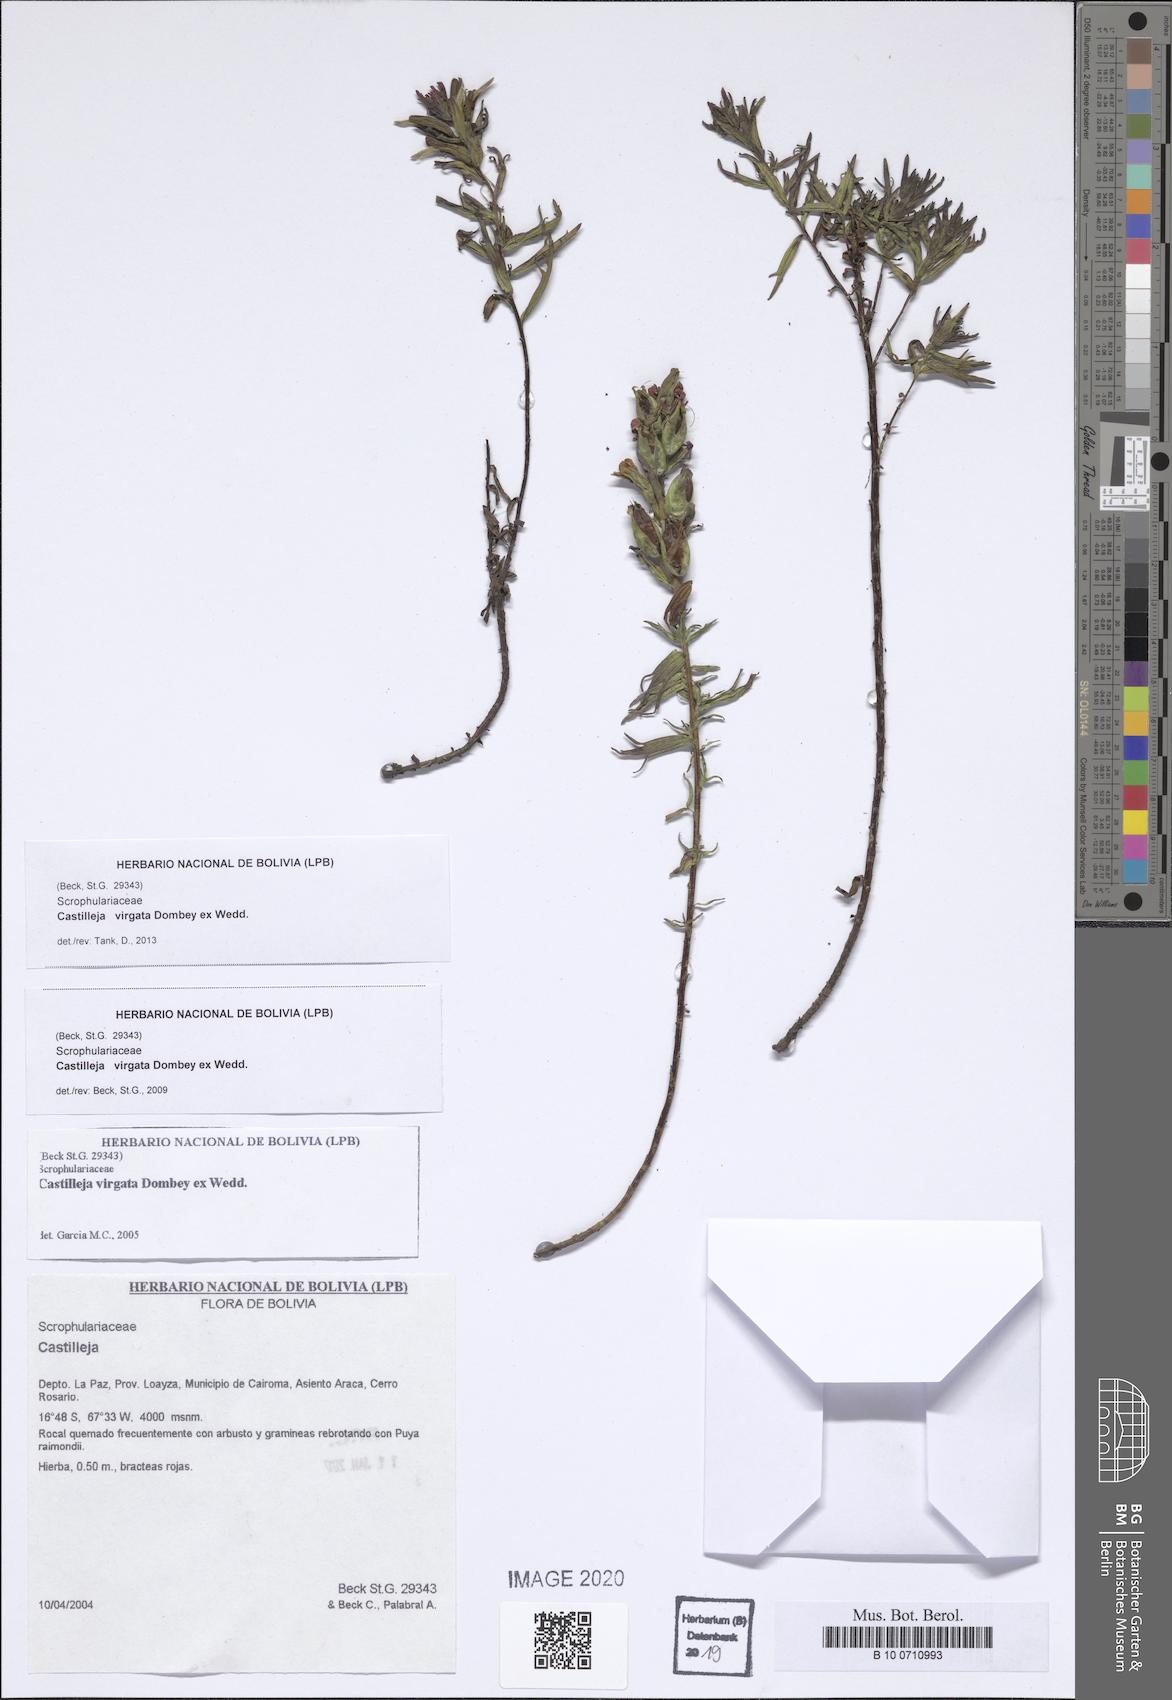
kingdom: Plantae
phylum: Tracheophyta
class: Magnoliopsida
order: Lamiales
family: Orobanchaceae
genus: Castilleja
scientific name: Castilleja virgata
